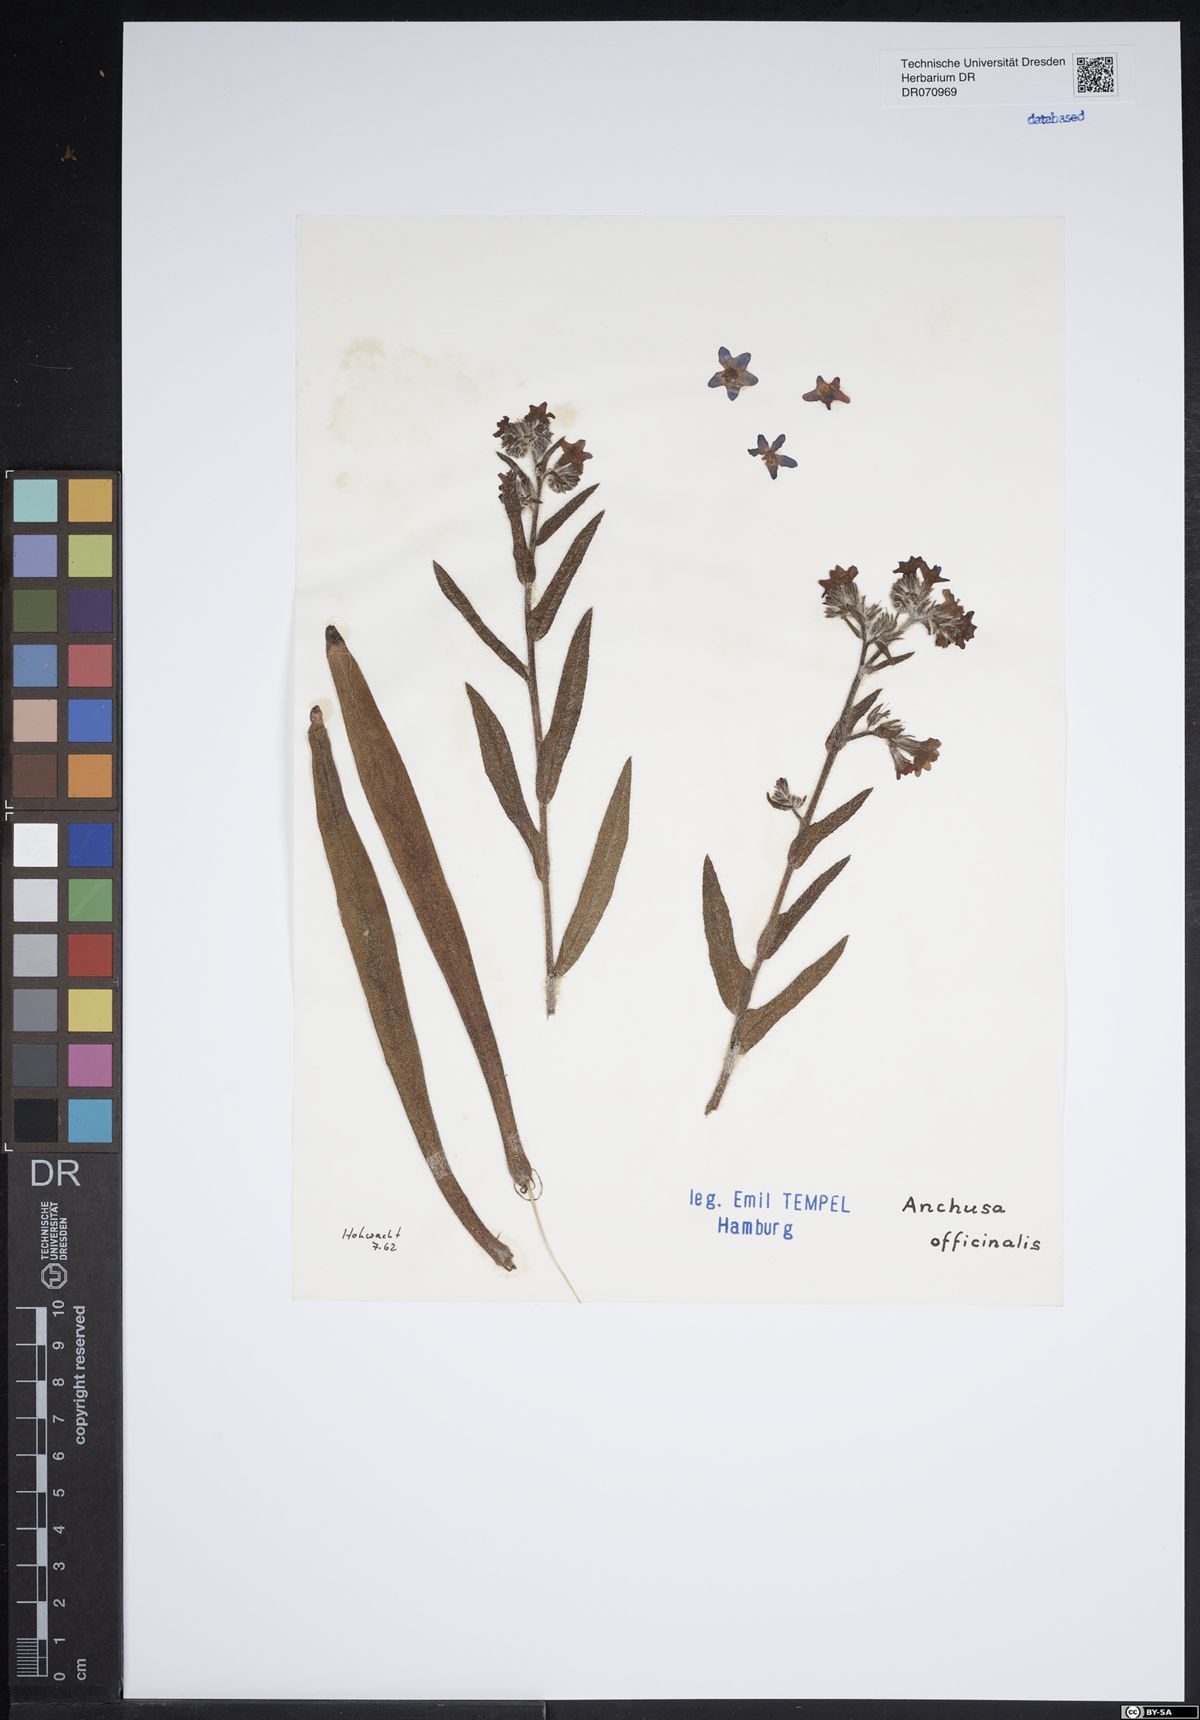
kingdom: Plantae
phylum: Tracheophyta
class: Magnoliopsida
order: Boraginales
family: Boraginaceae
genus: Anchusa
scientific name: Anchusa officinalis
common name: Alkanet
